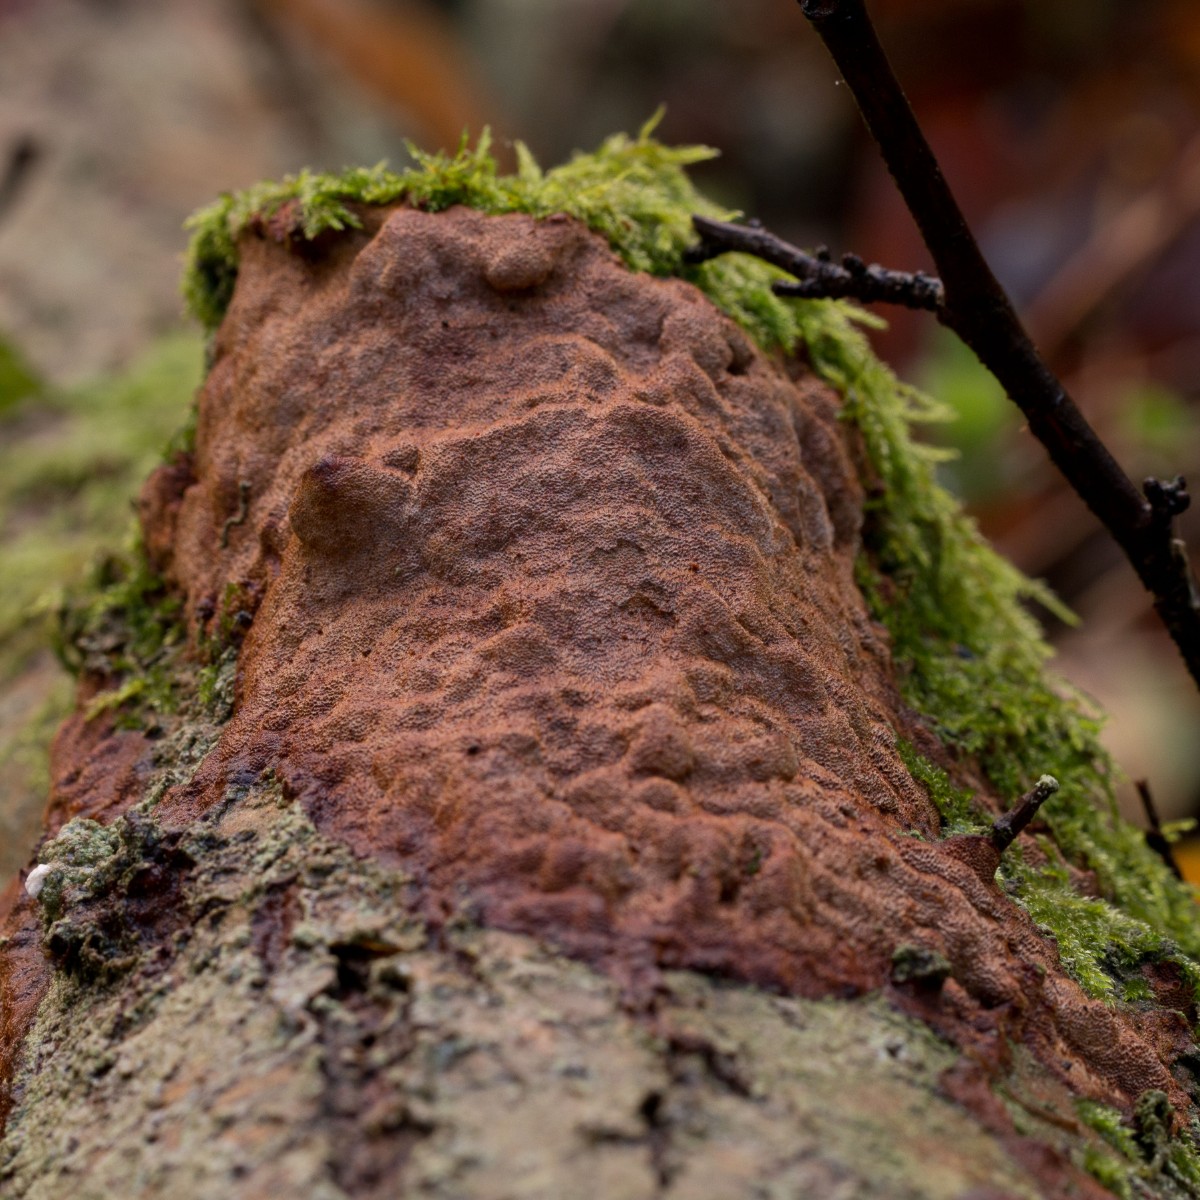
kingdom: Fungi
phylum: Basidiomycota
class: Agaricomycetes
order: Hymenochaetales
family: Hymenochaetaceae
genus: Fuscoporia
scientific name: Fuscoporia ferrea
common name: skorpe-ildporesvamp
